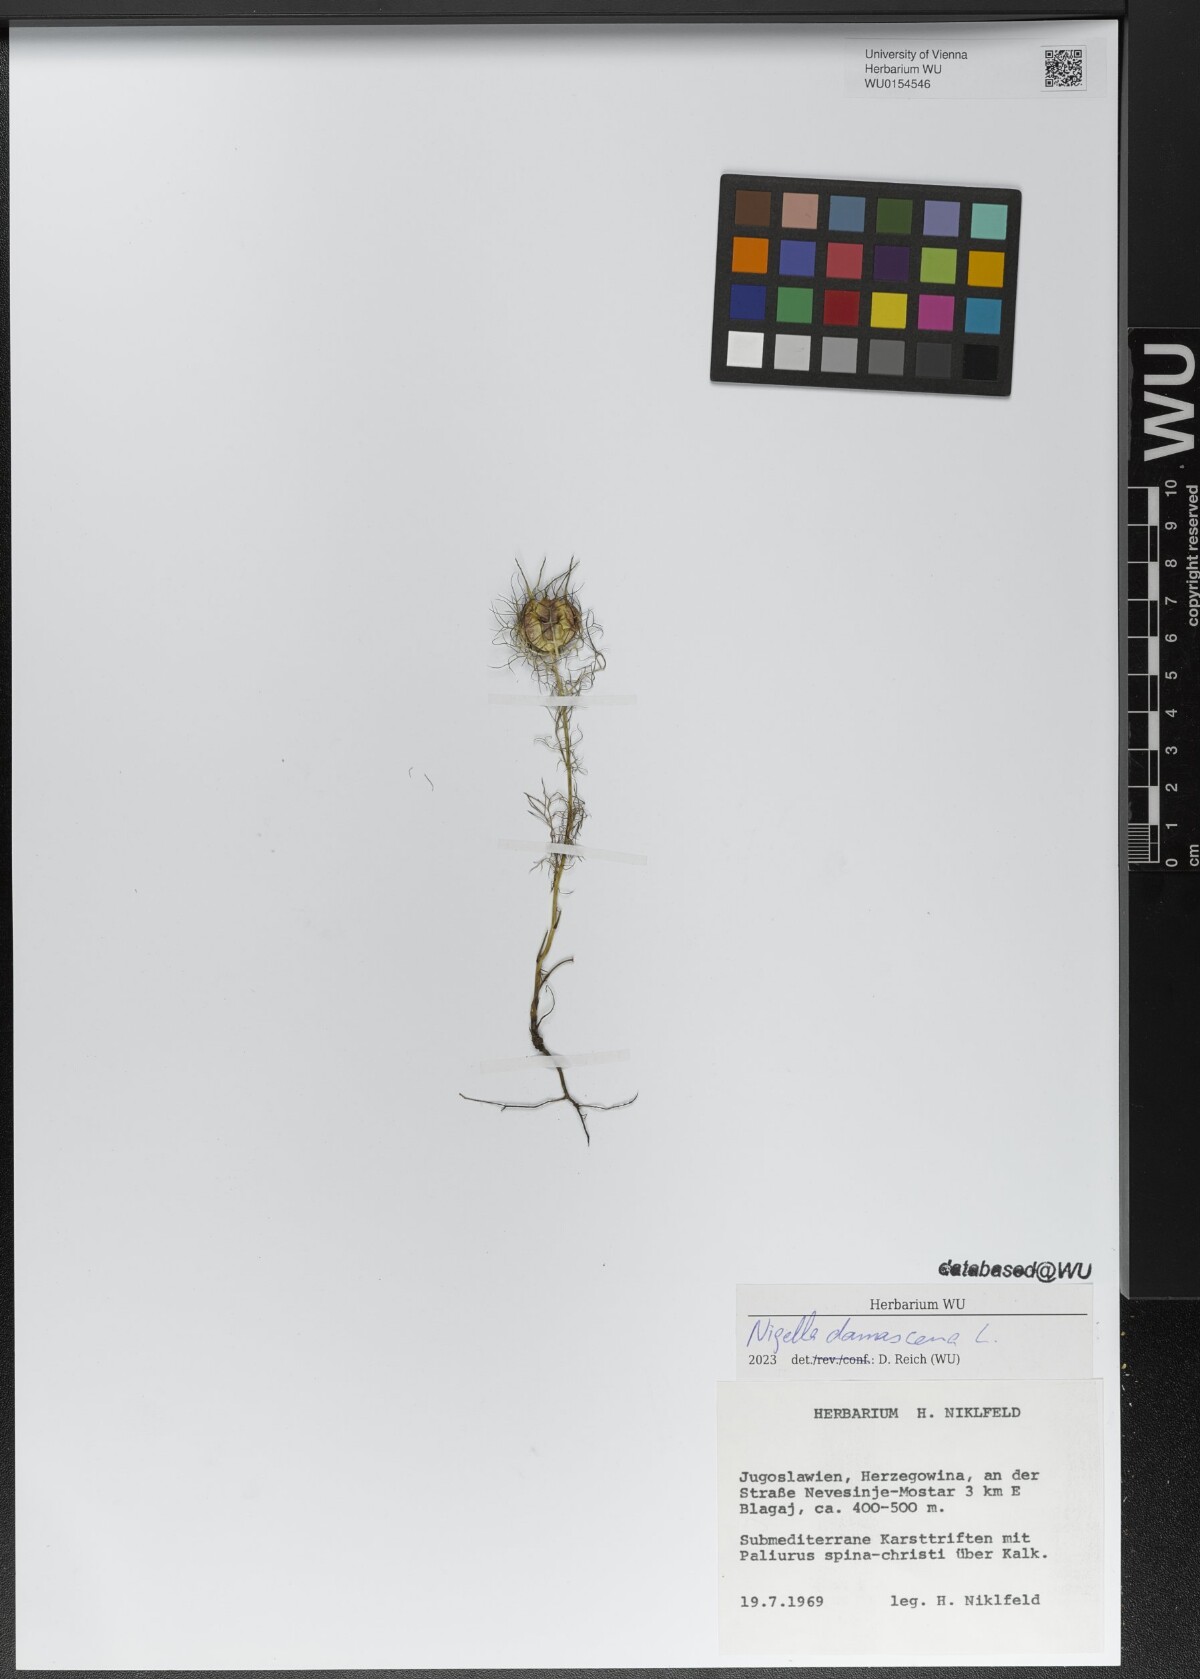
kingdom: Plantae
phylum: Tracheophyta
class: Magnoliopsida
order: Ranunculales
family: Ranunculaceae
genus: Nigella
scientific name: Nigella damascena
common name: Love-in-a-mist
